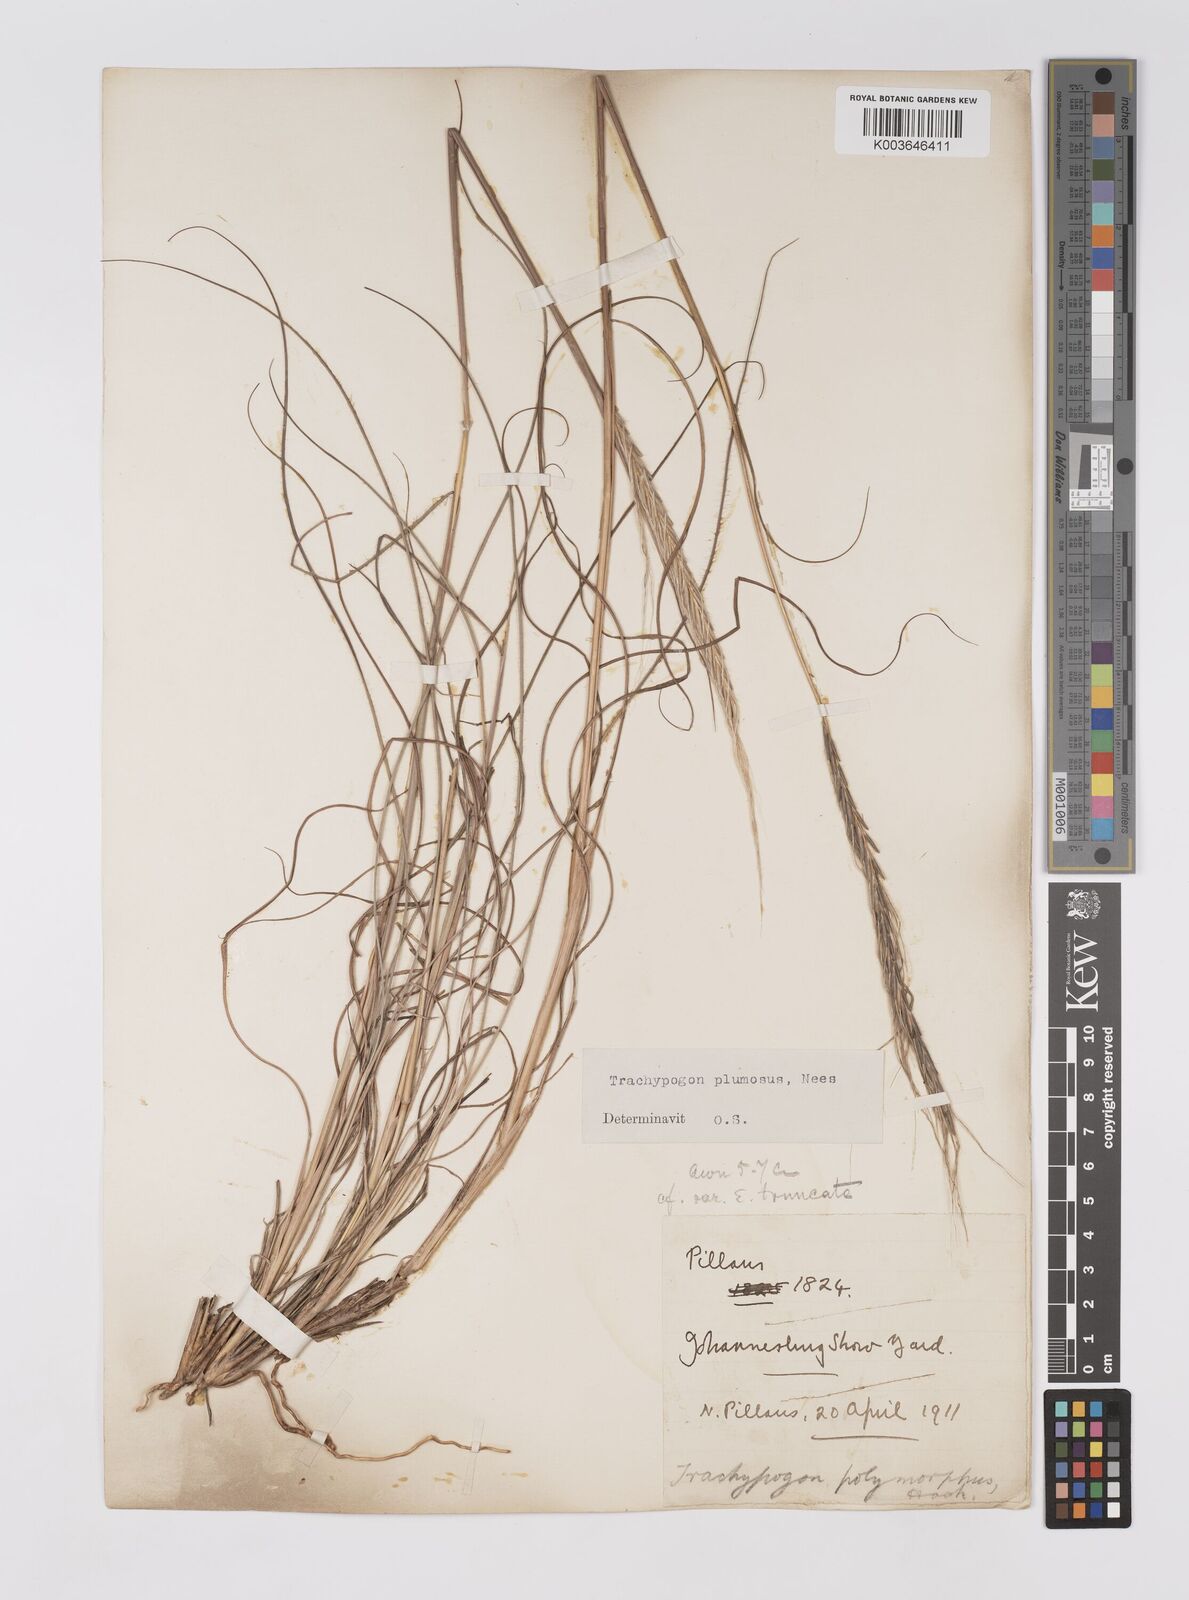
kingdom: Plantae
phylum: Tracheophyta
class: Liliopsida
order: Poales
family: Poaceae
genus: Trachypogon
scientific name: Trachypogon spicatus
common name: Crinkle-awn
